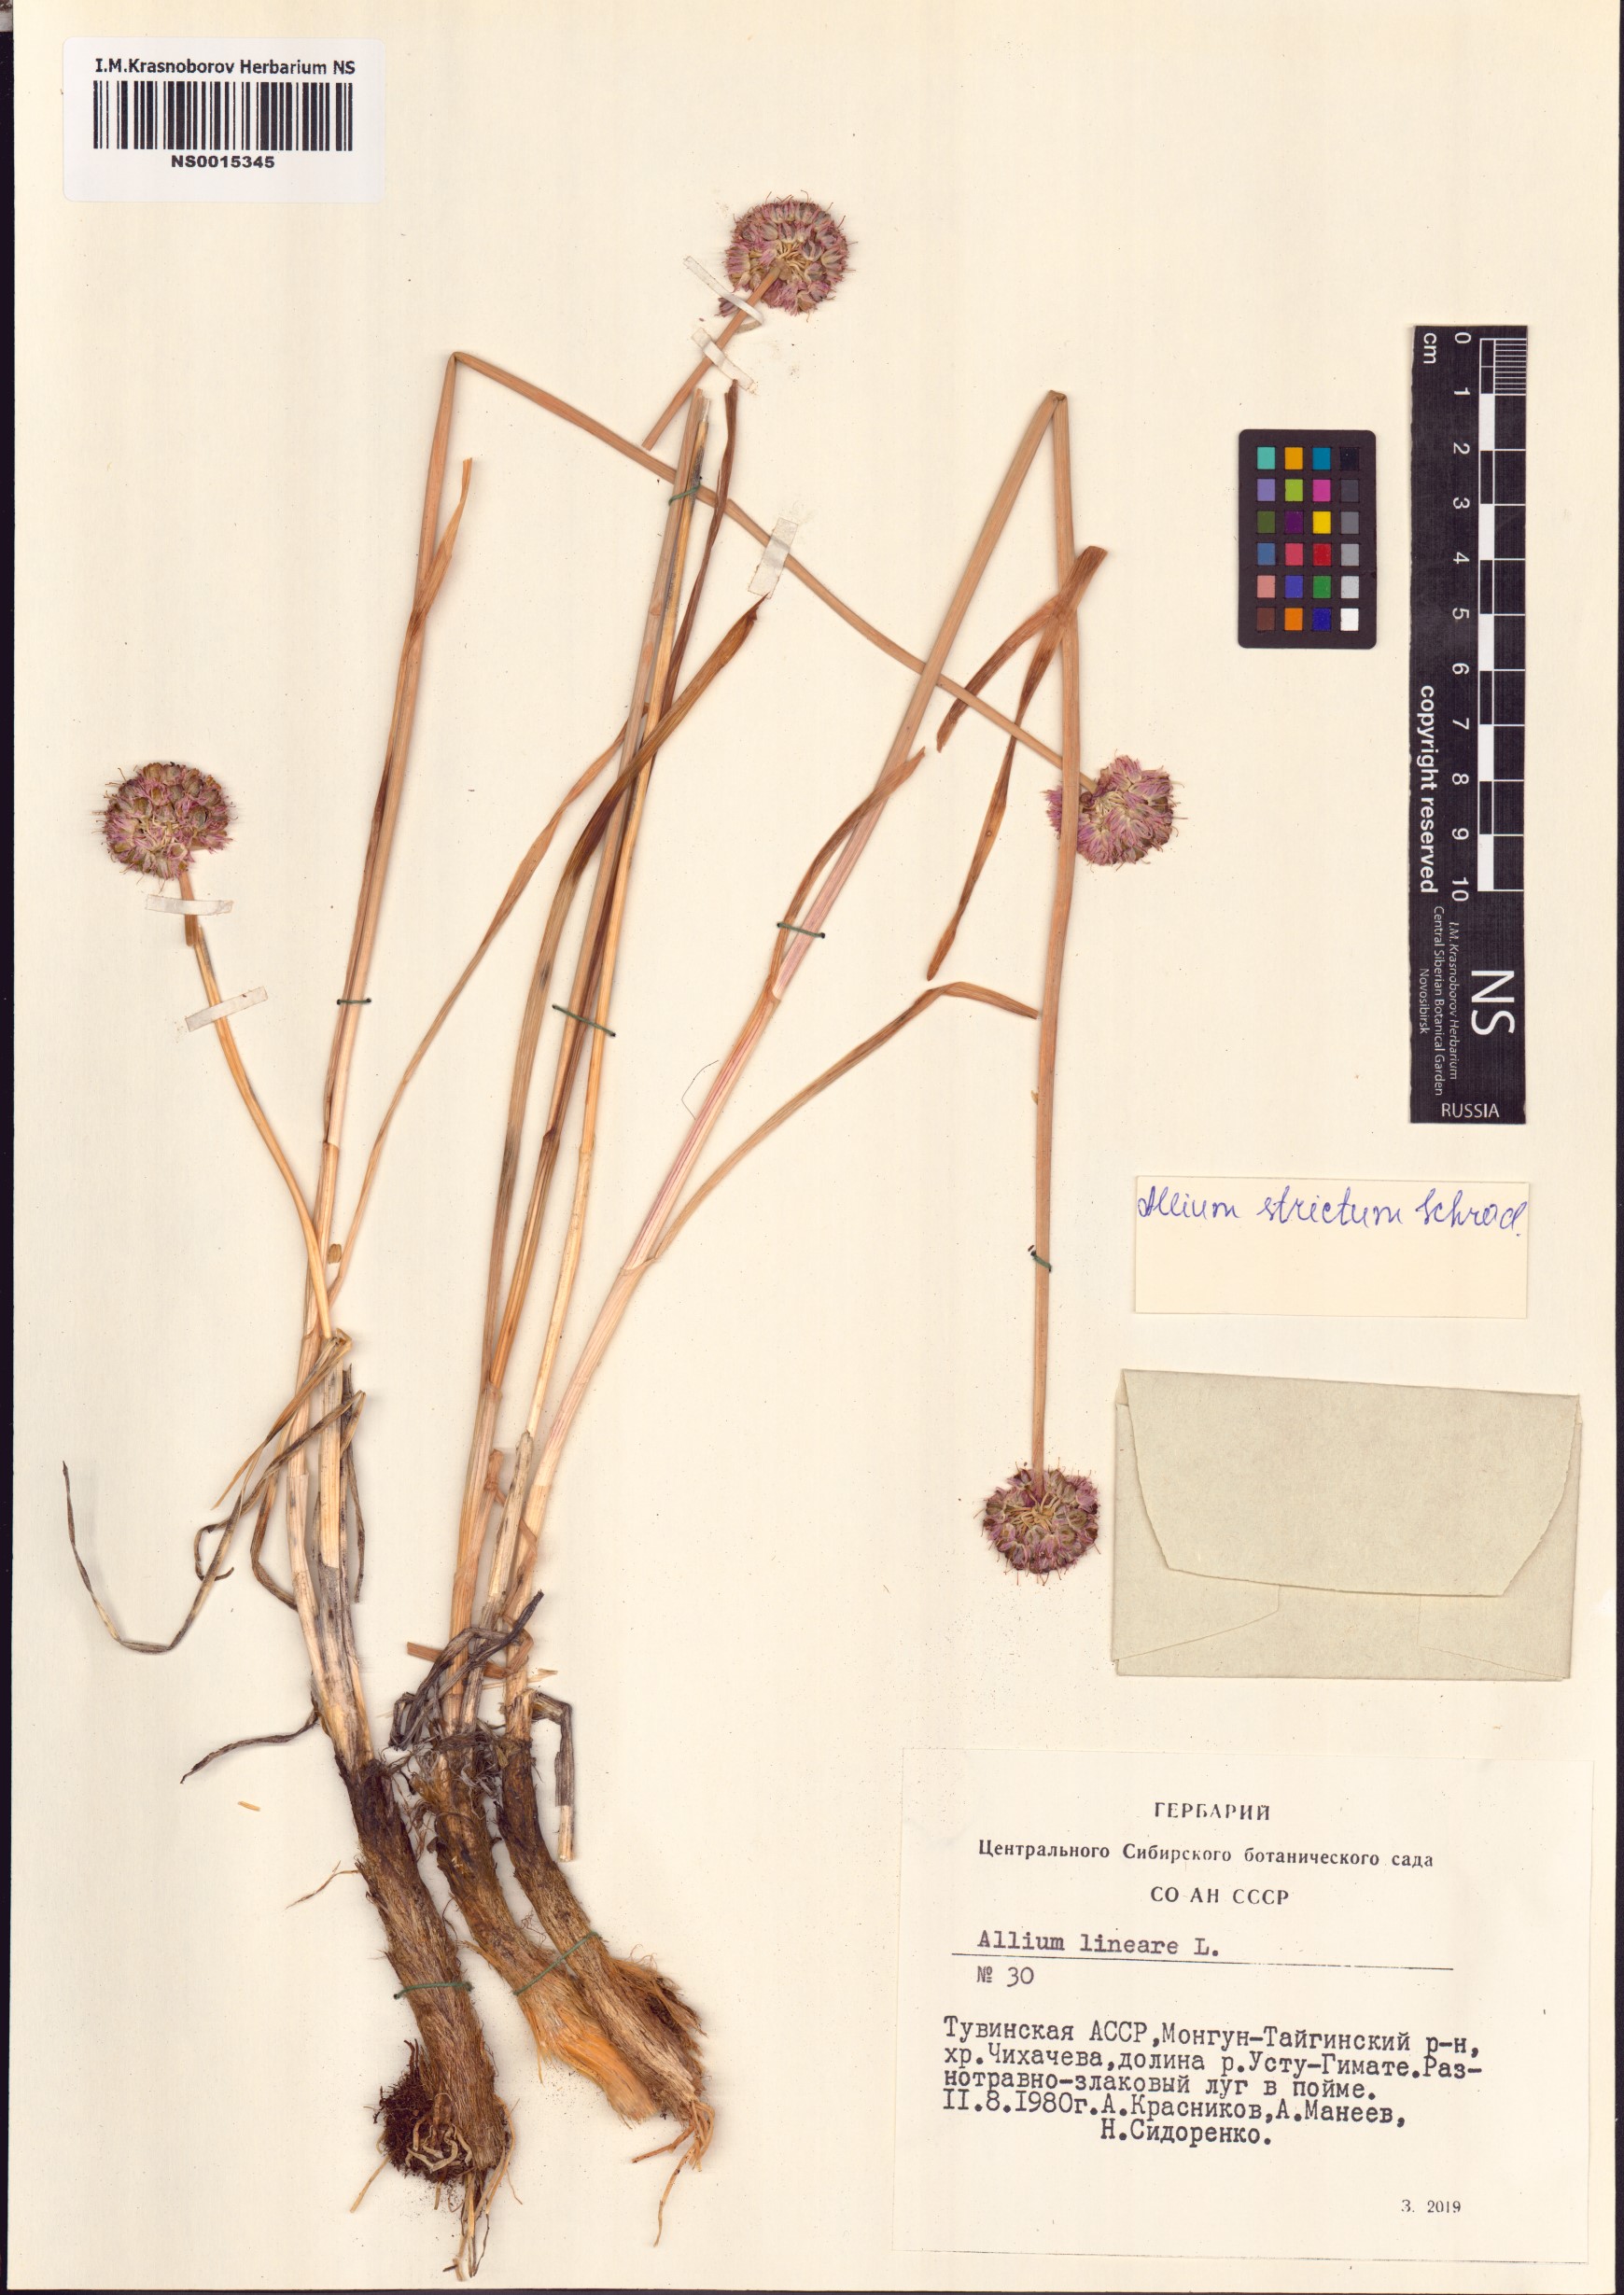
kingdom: Plantae
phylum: Tracheophyta
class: Liliopsida
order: Asparagales
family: Amaryllidaceae
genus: Allium
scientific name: Allium strictum
